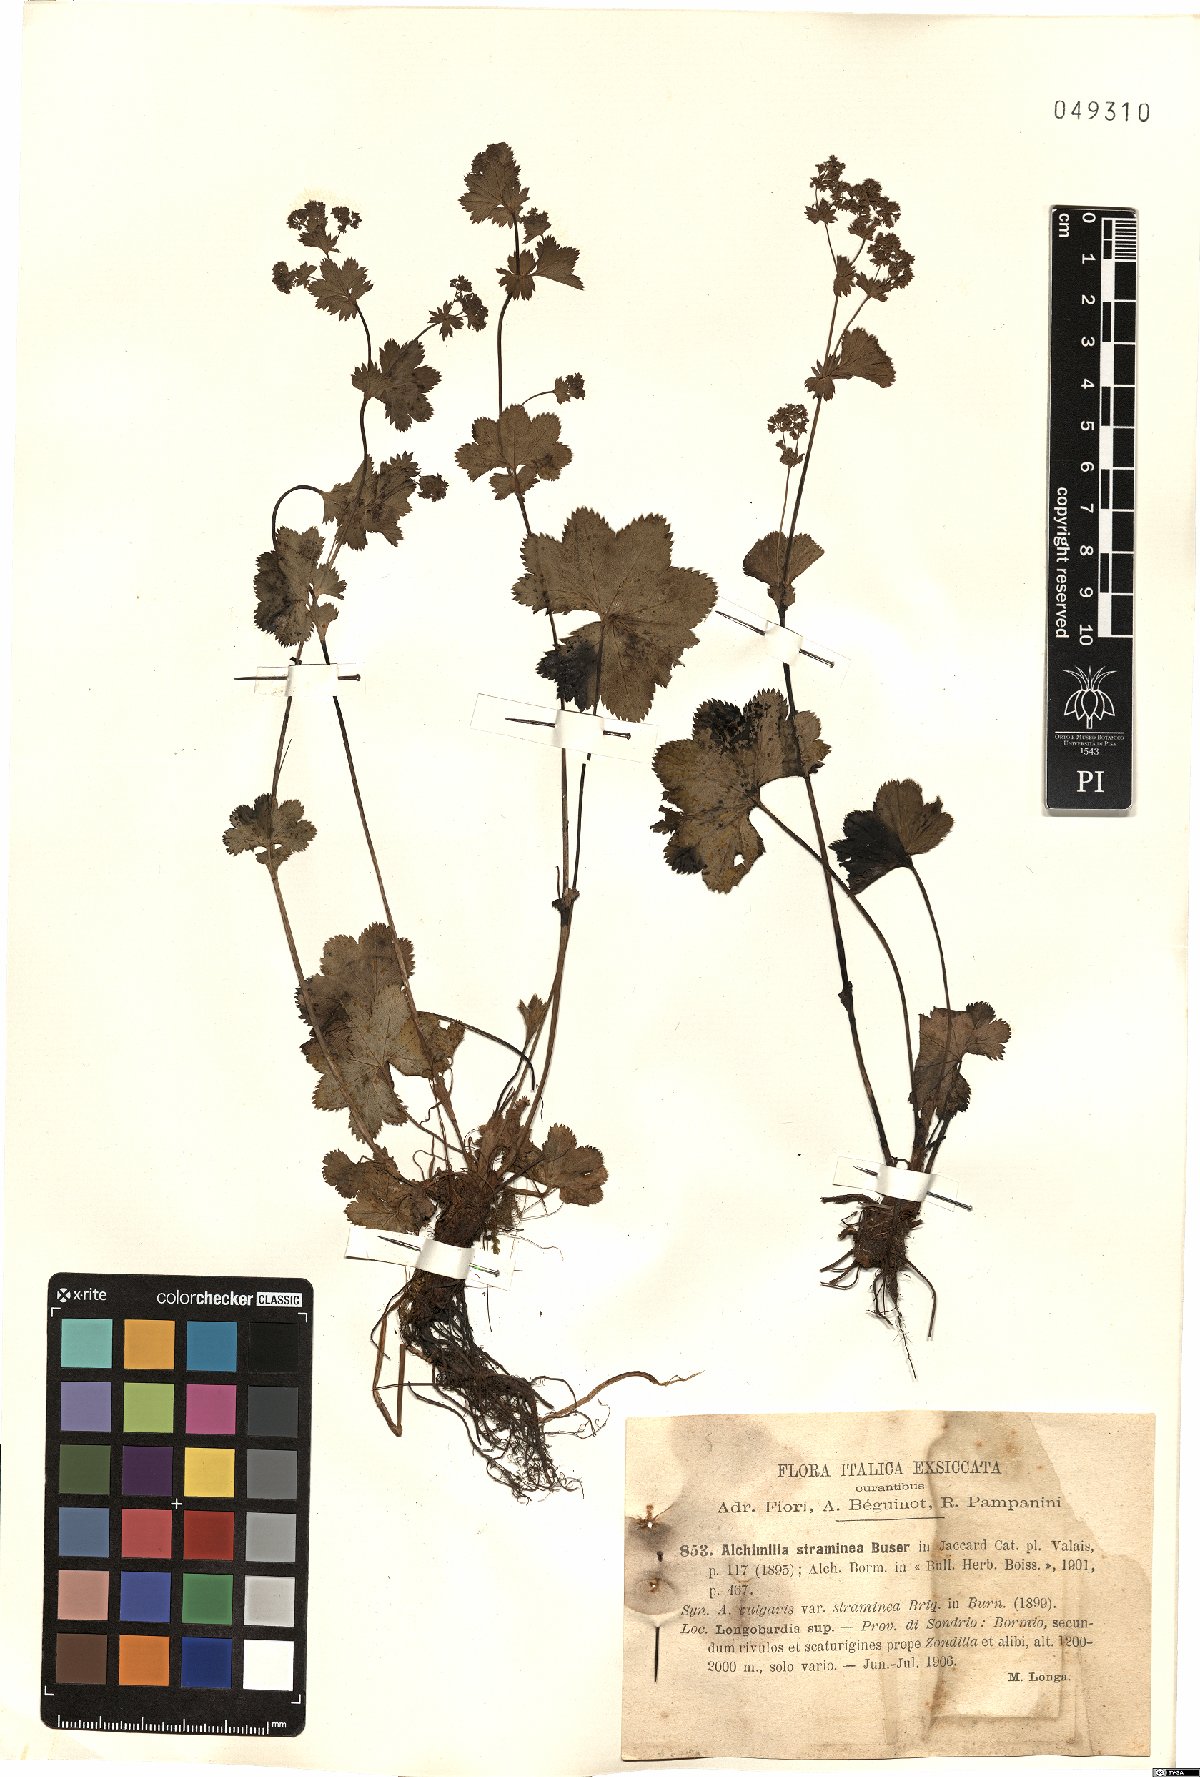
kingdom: Plantae
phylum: Tracheophyta
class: Magnoliopsida
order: Rosales
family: Rosaceae
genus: Alchemilla
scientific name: Alchemilla straminea
